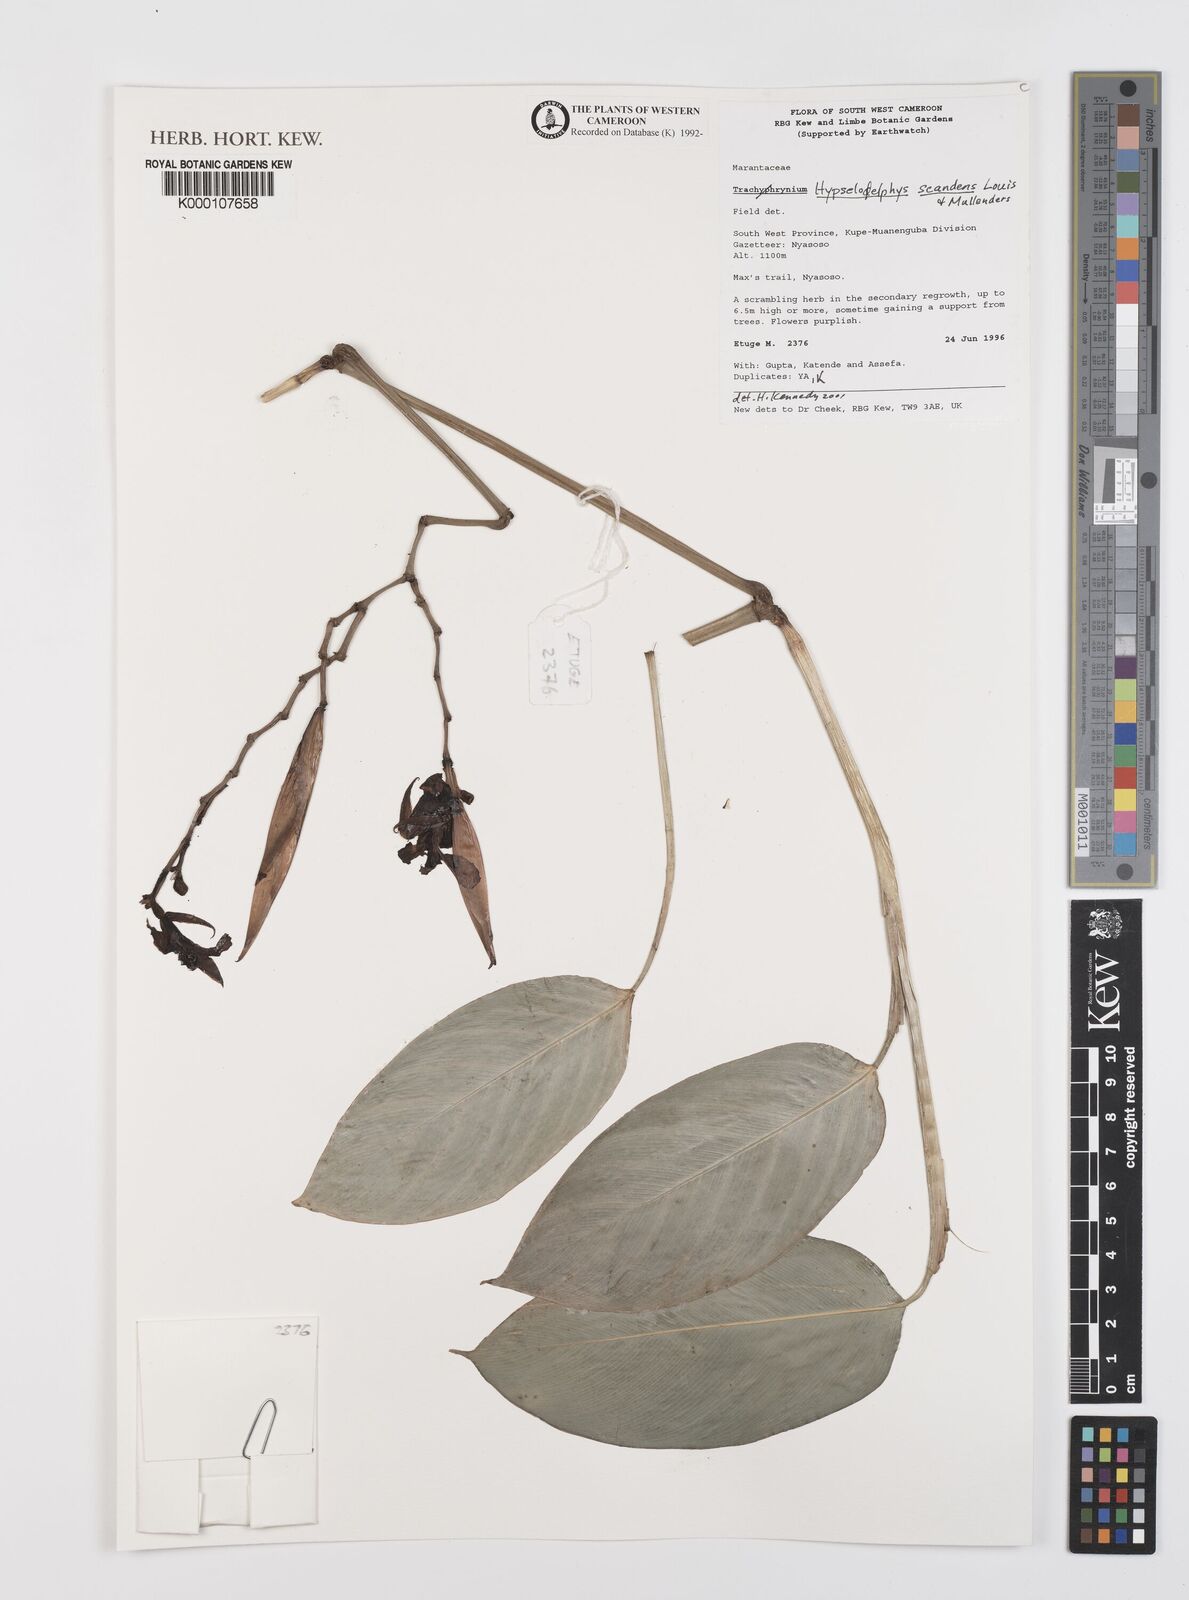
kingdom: Plantae
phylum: Tracheophyta
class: Liliopsida
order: Zingiberales
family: Marantaceae
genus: Hypselodelphys
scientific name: Hypselodelphys scandens
